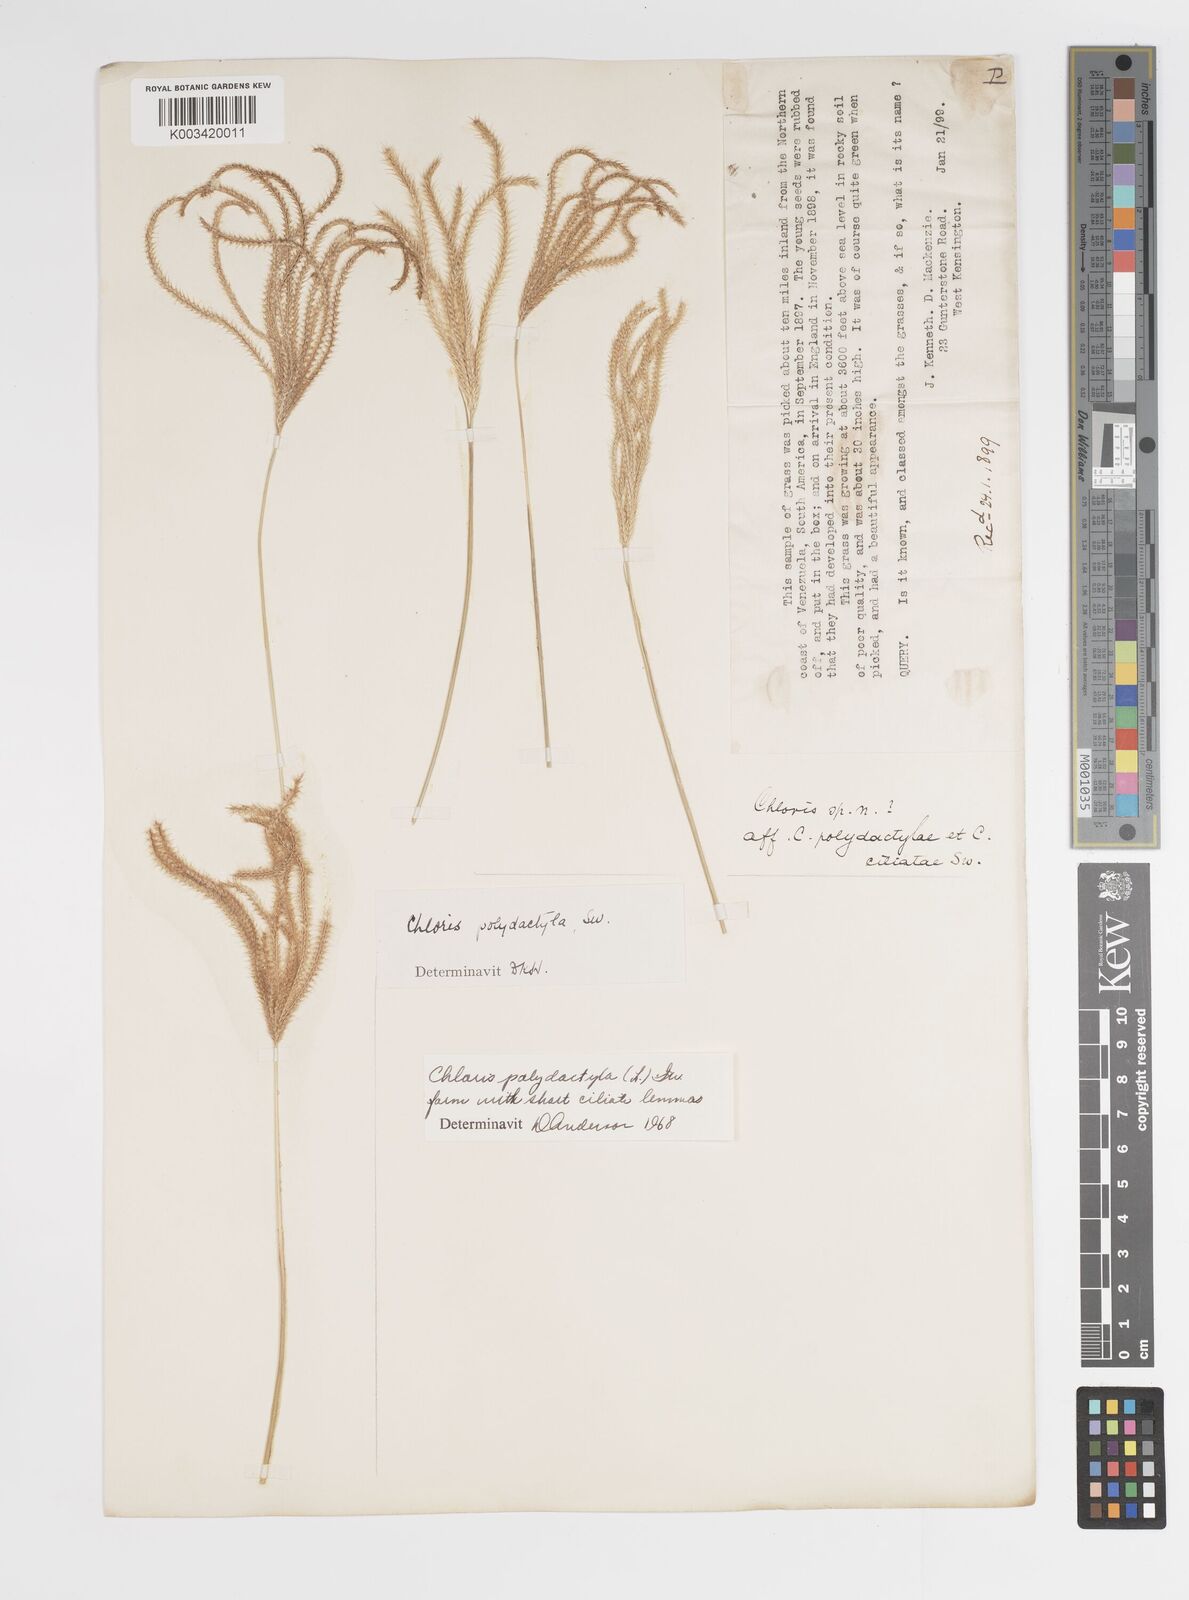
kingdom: Plantae
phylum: Tracheophyta
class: Liliopsida
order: Poales
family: Poaceae
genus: Stapfochloa
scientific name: Stapfochloa elata
